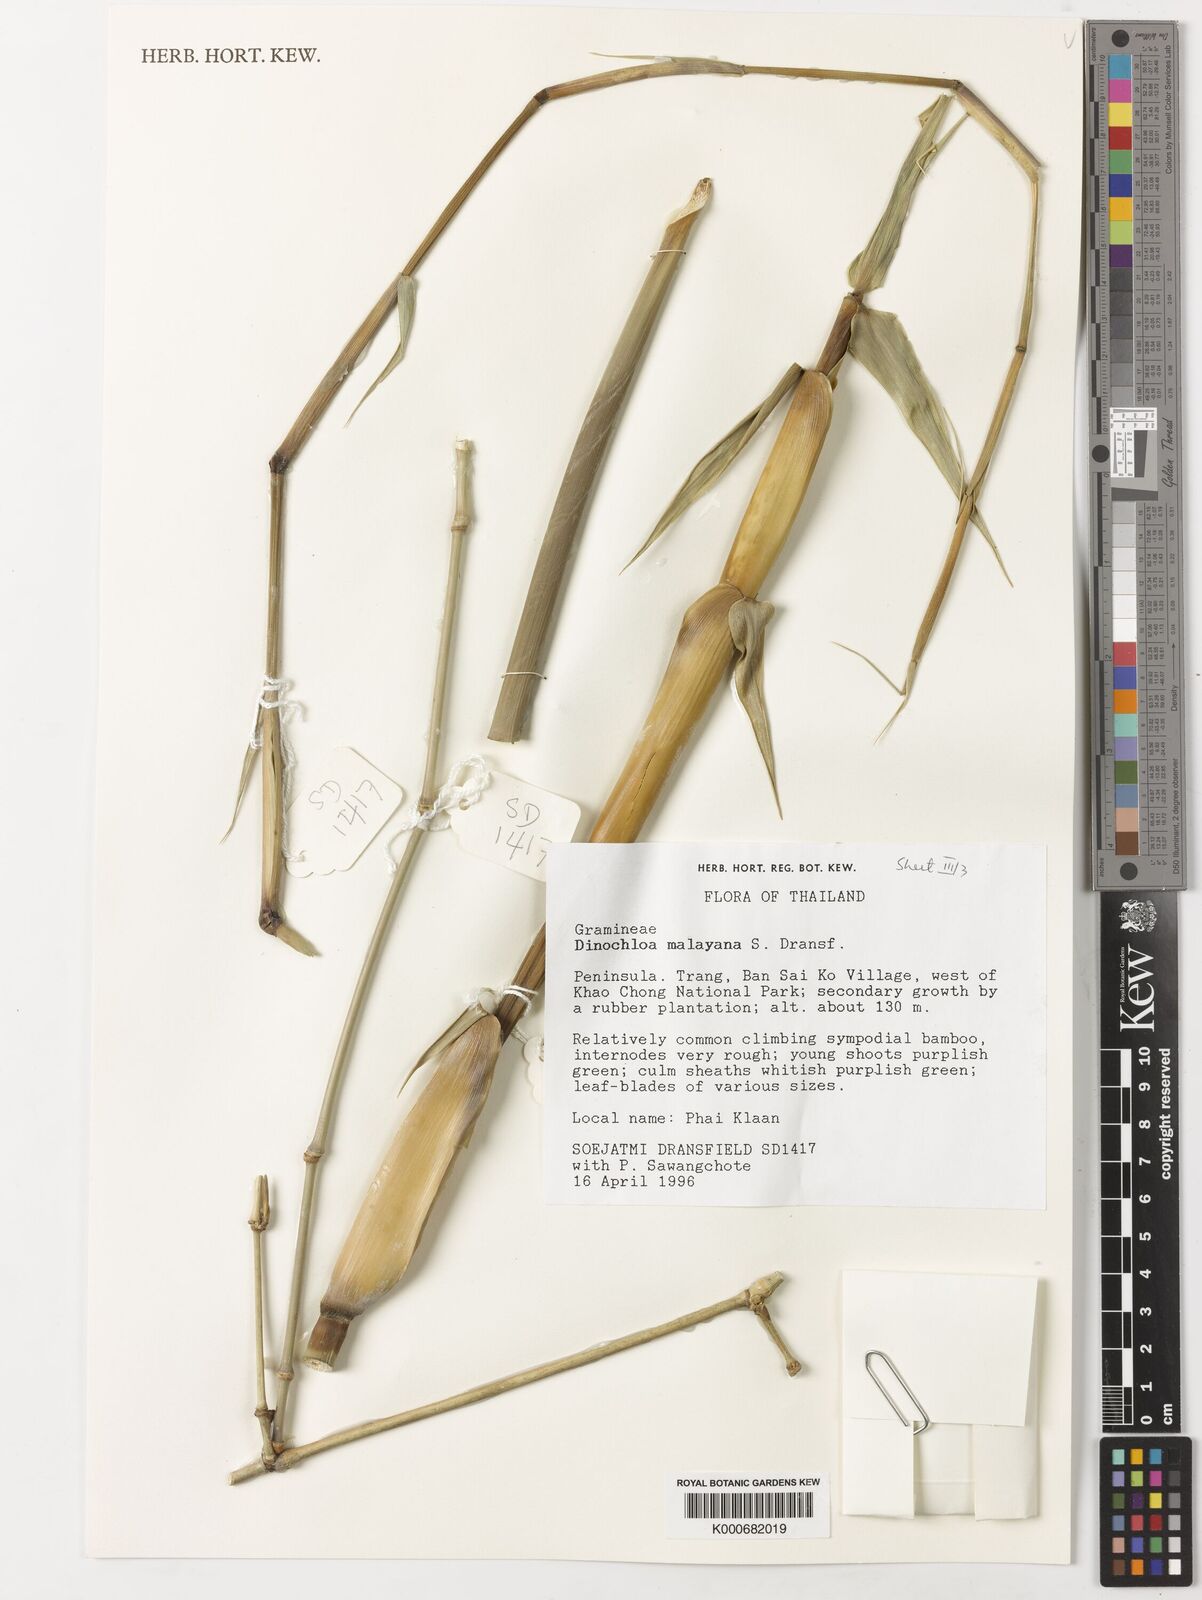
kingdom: Plantae
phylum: Tracheophyta
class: Liliopsida
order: Poales
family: Poaceae
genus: Dinochloa
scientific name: Dinochloa malayana
